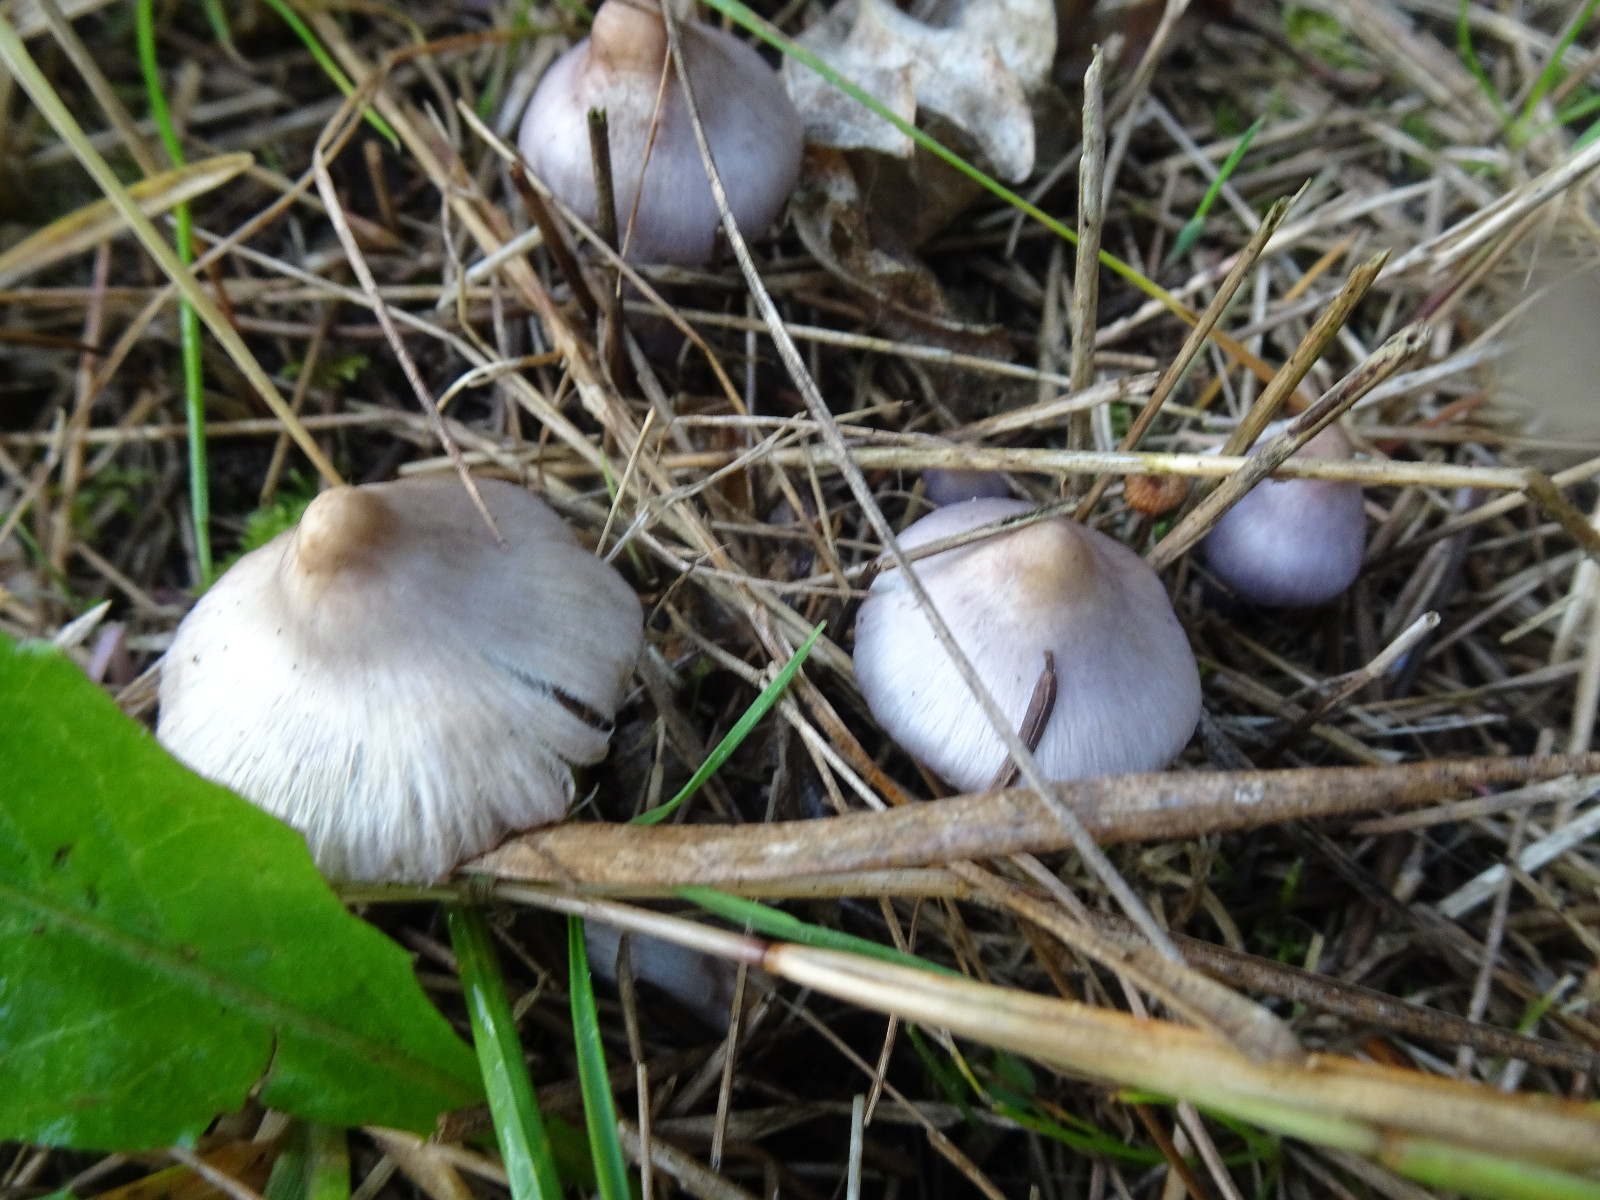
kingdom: Fungi
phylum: Basidiomycota
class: Agaricomycetes
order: Agaricales
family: Inocybaceae
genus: Inocybe
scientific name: Inocybe geophylla
